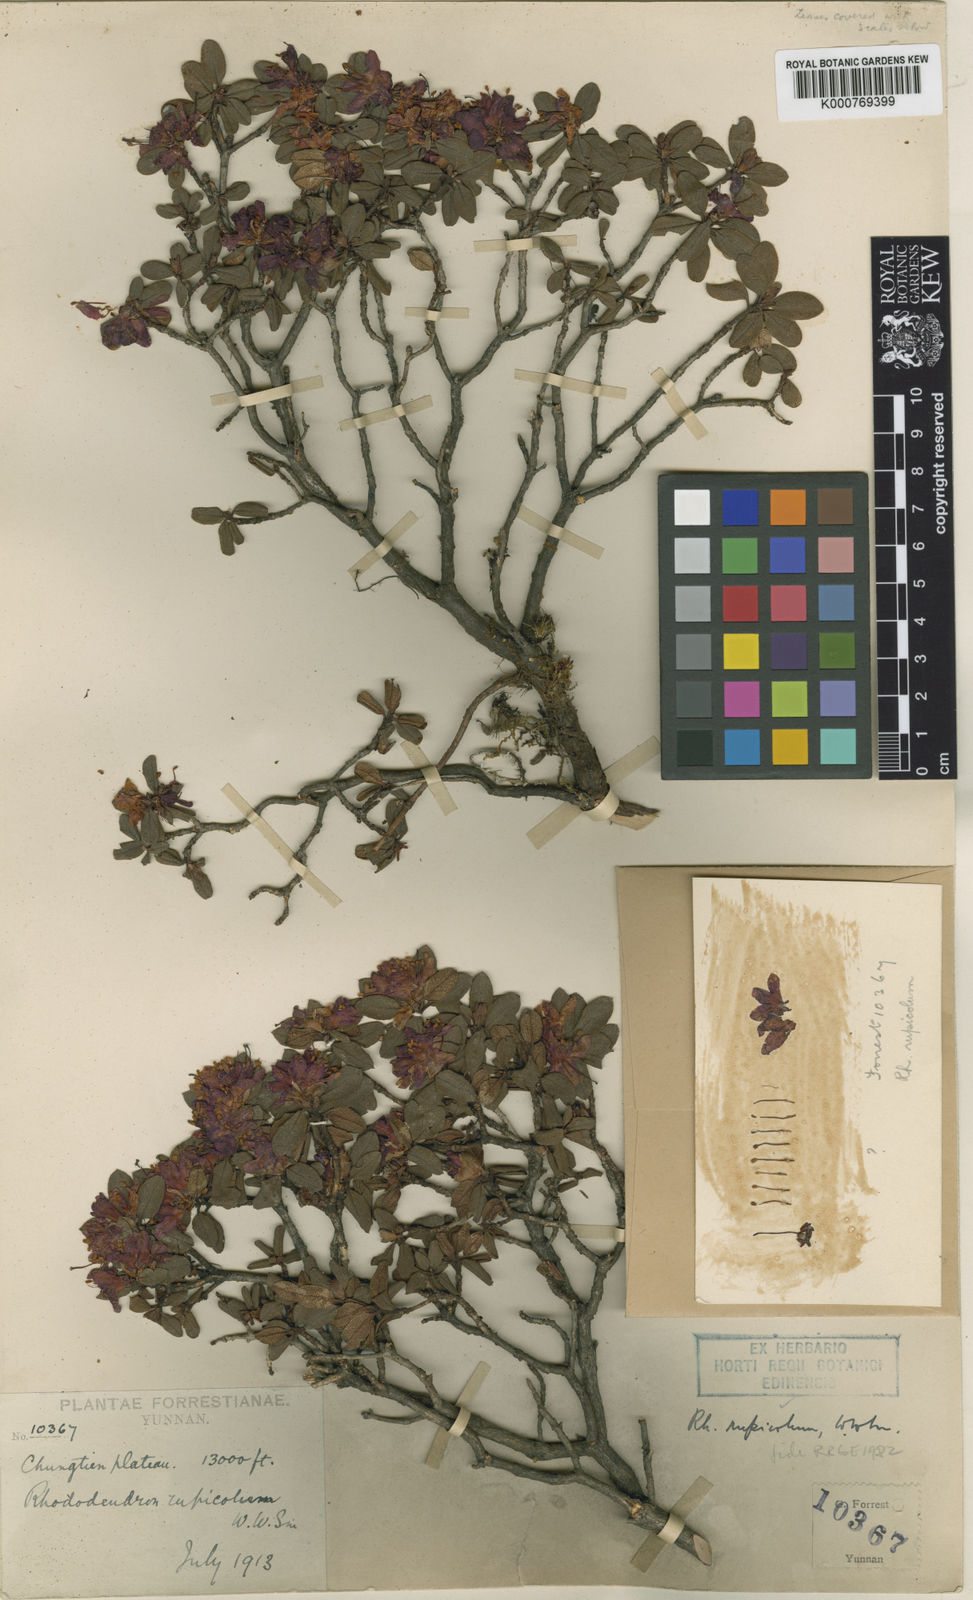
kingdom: Plantae
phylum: Tracheophyta
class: Magnoliopsida
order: Ericales
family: Ericaceae
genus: Rhododendron
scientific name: Rhododendron rupicola
